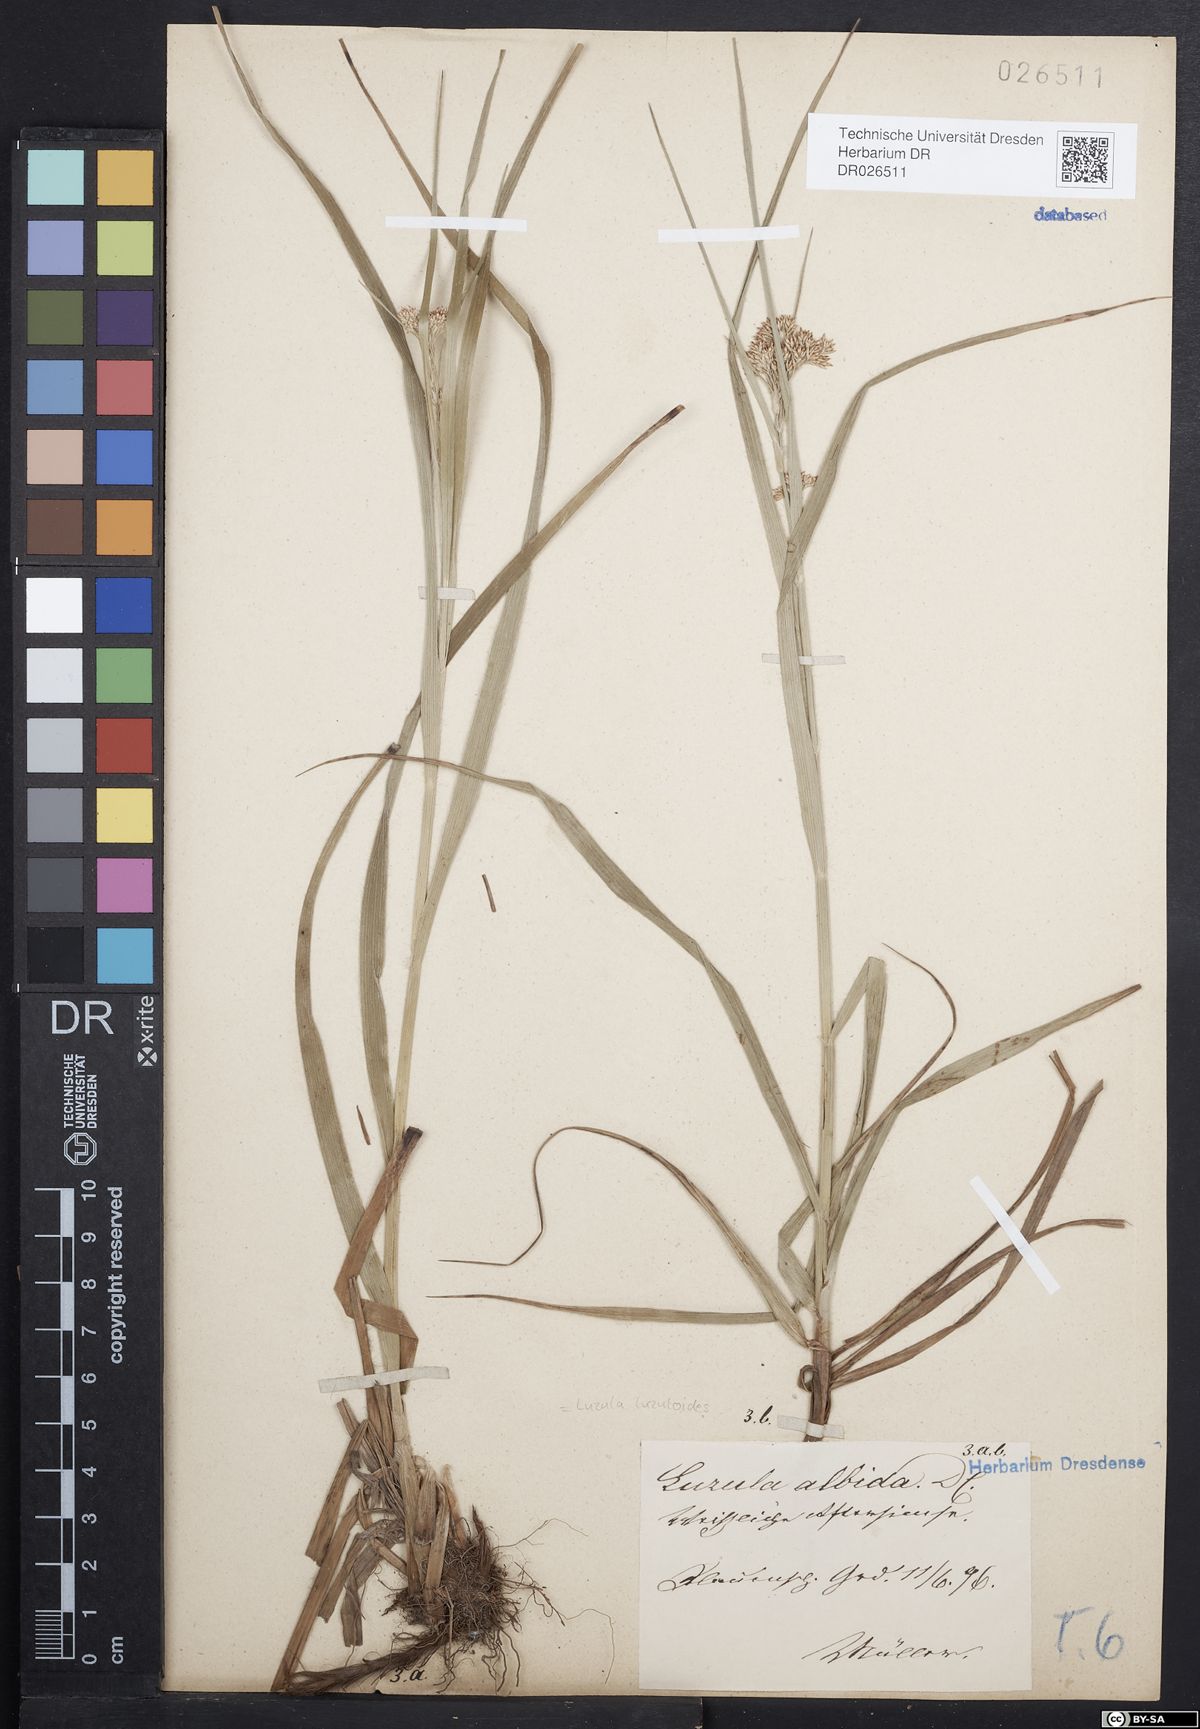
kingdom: Plantae
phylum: Tracheophyta
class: Liliopsida
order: Poales
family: Juncaceae
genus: Luzula
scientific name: Luzula luzuloides
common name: White wood-rush
